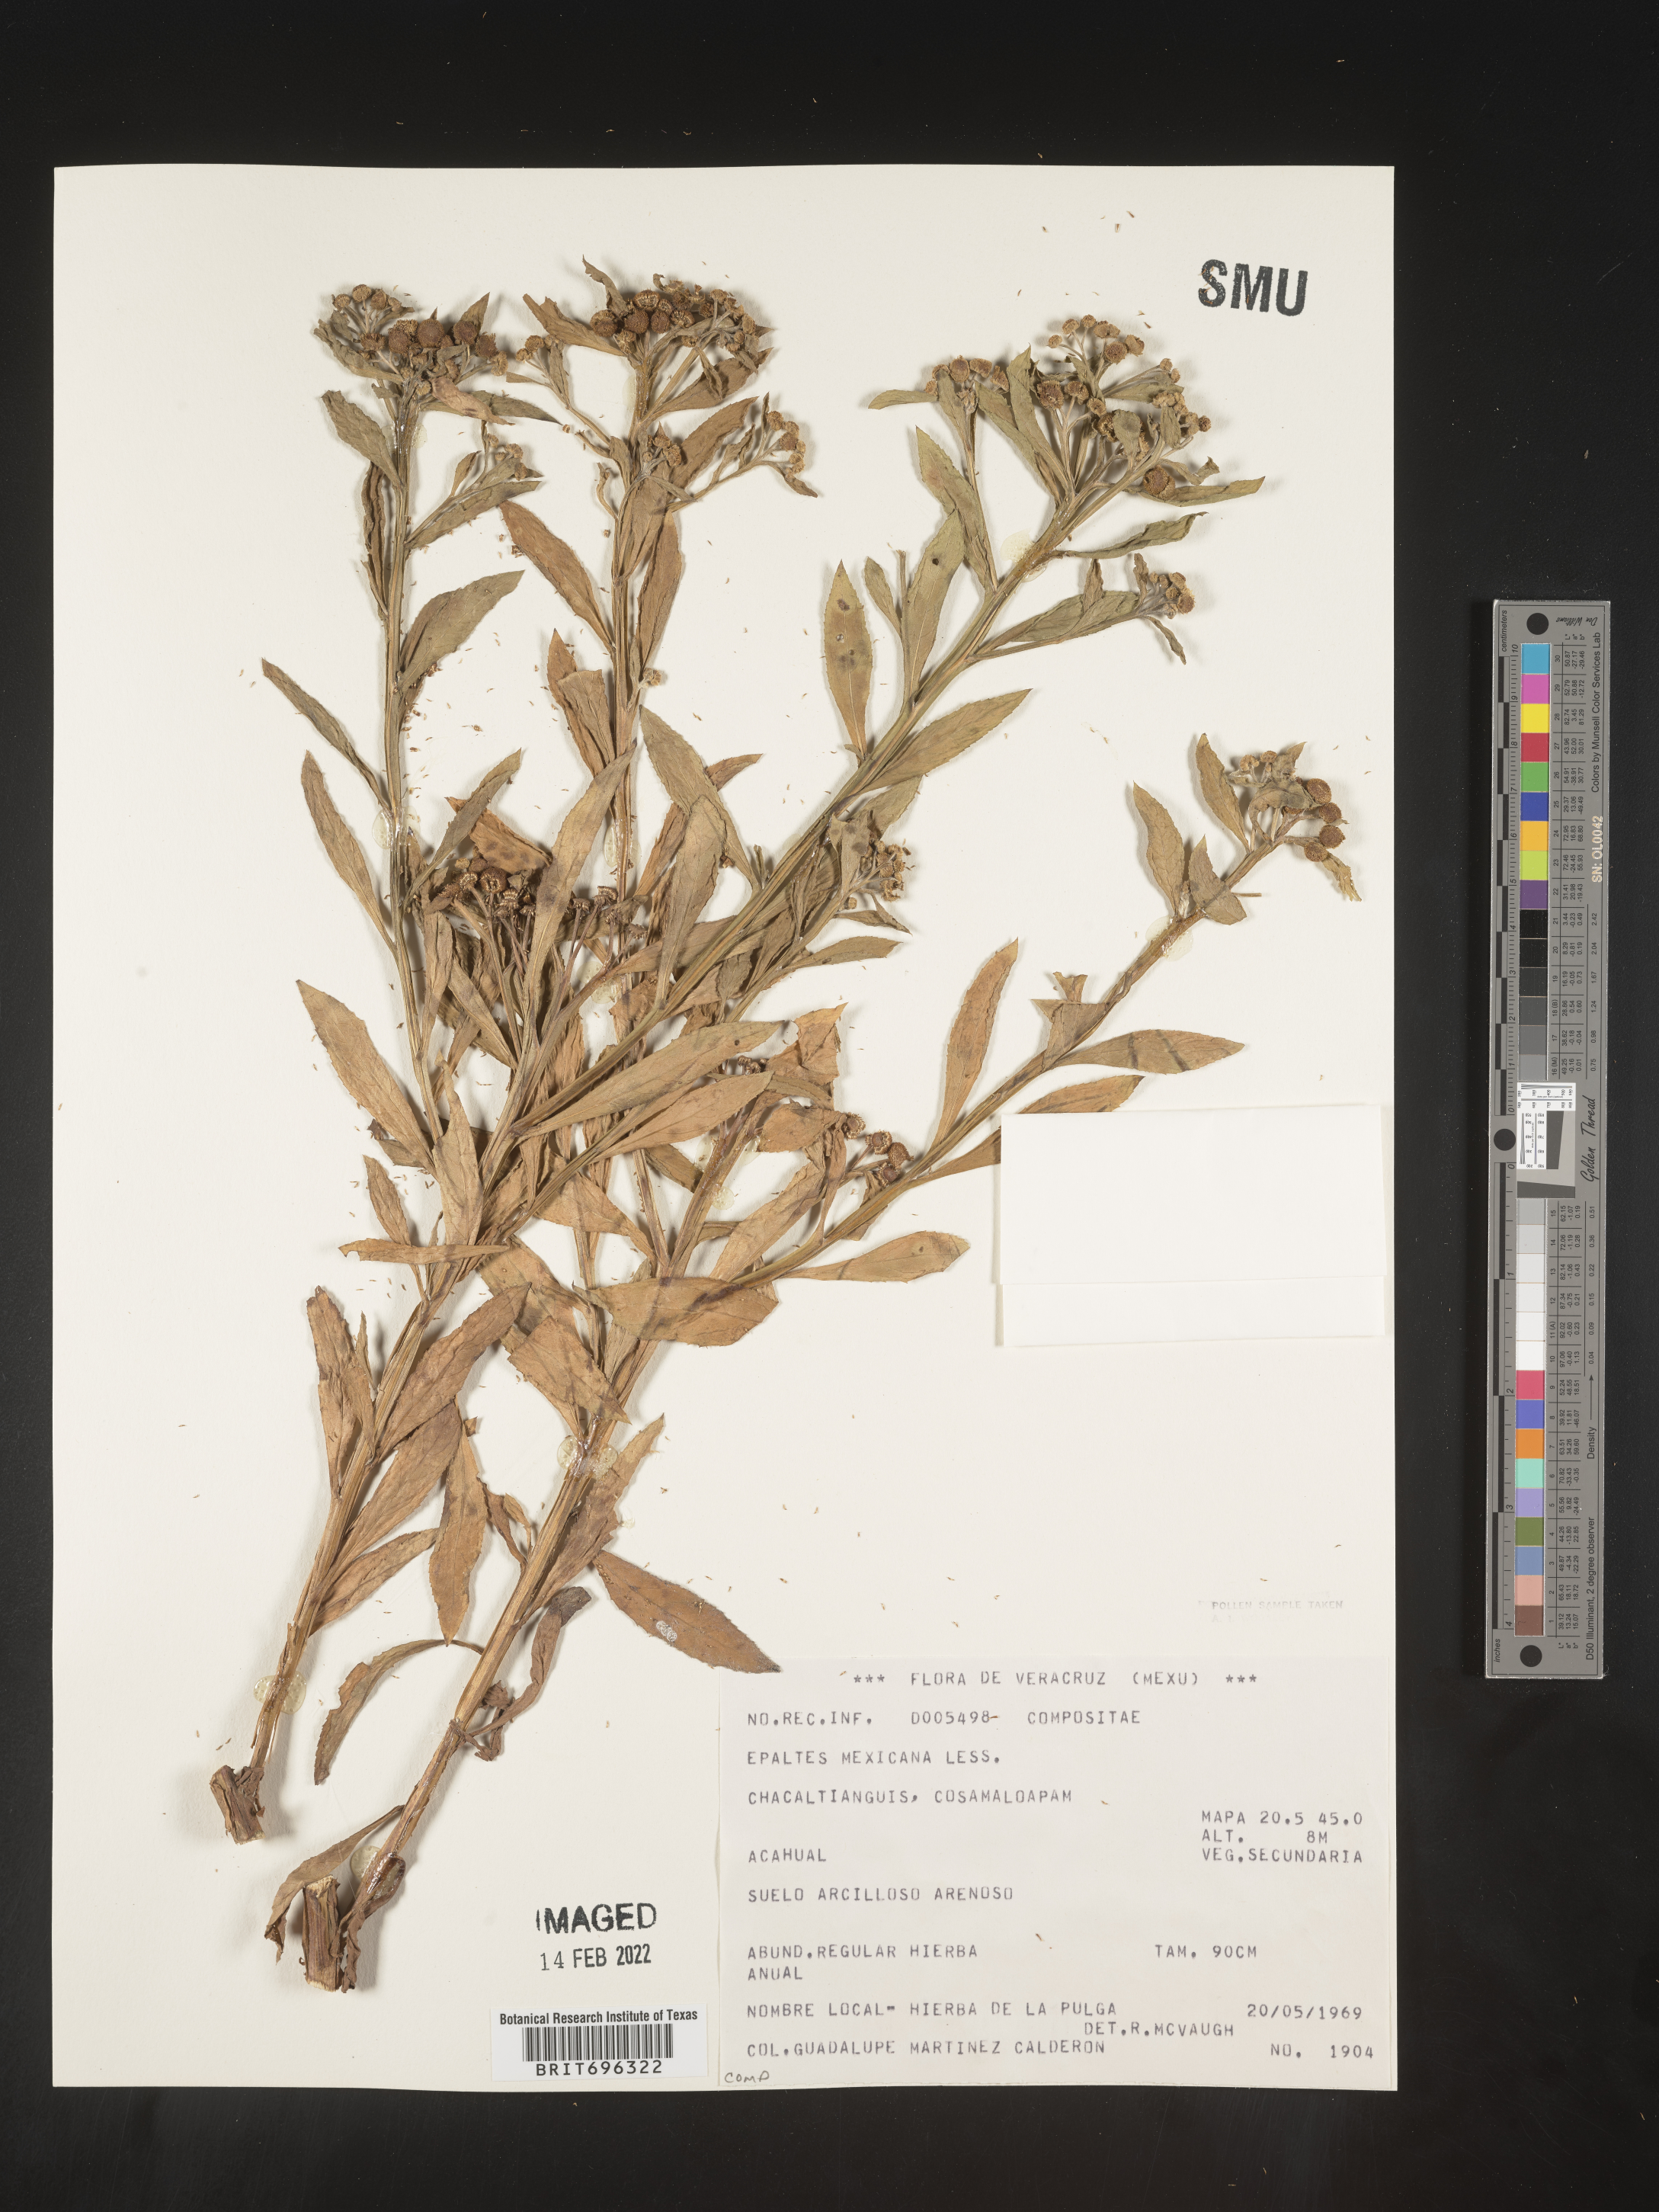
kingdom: Plantae
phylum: Tracheophyta
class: Magnoliopsida
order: Asterales
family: Asteraceae
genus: Epaltes
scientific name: Epaltes
